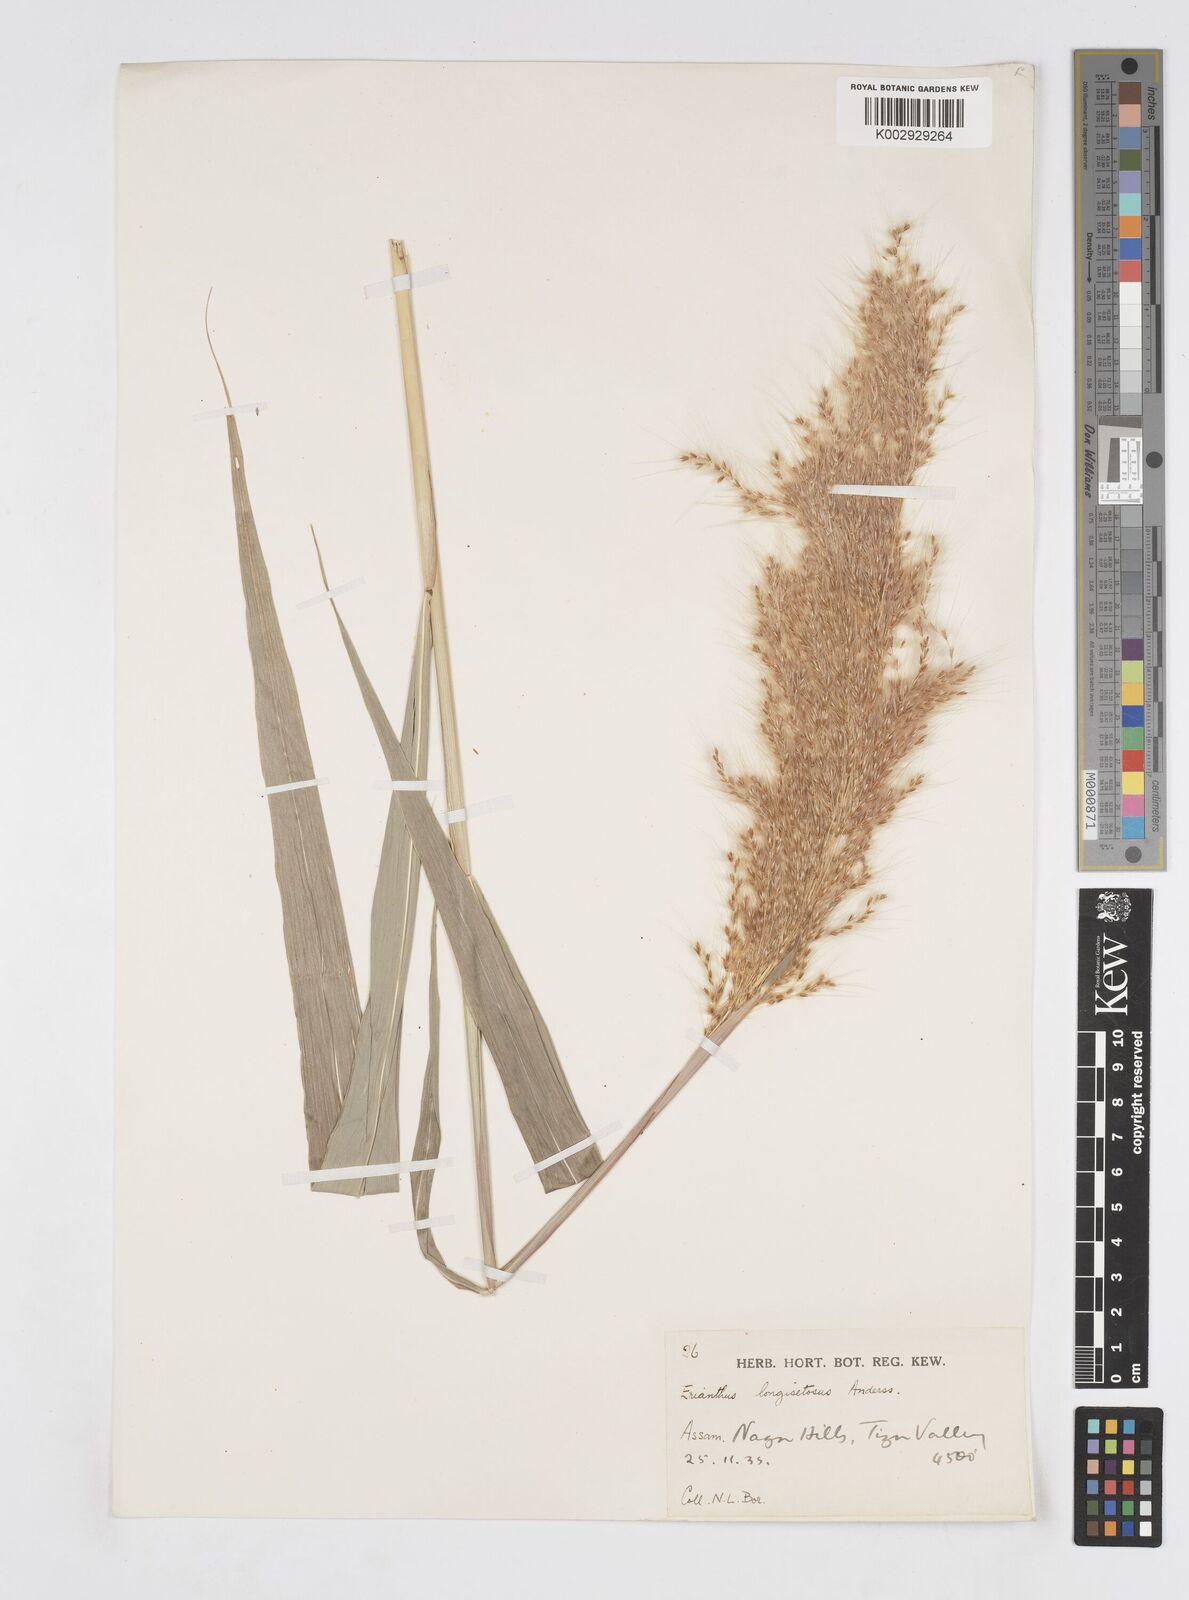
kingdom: Plantae
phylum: Tracheophyta
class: Liliopsida
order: Poales
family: Poaceae
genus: Saccharum
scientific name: Saccharum longesetosum
